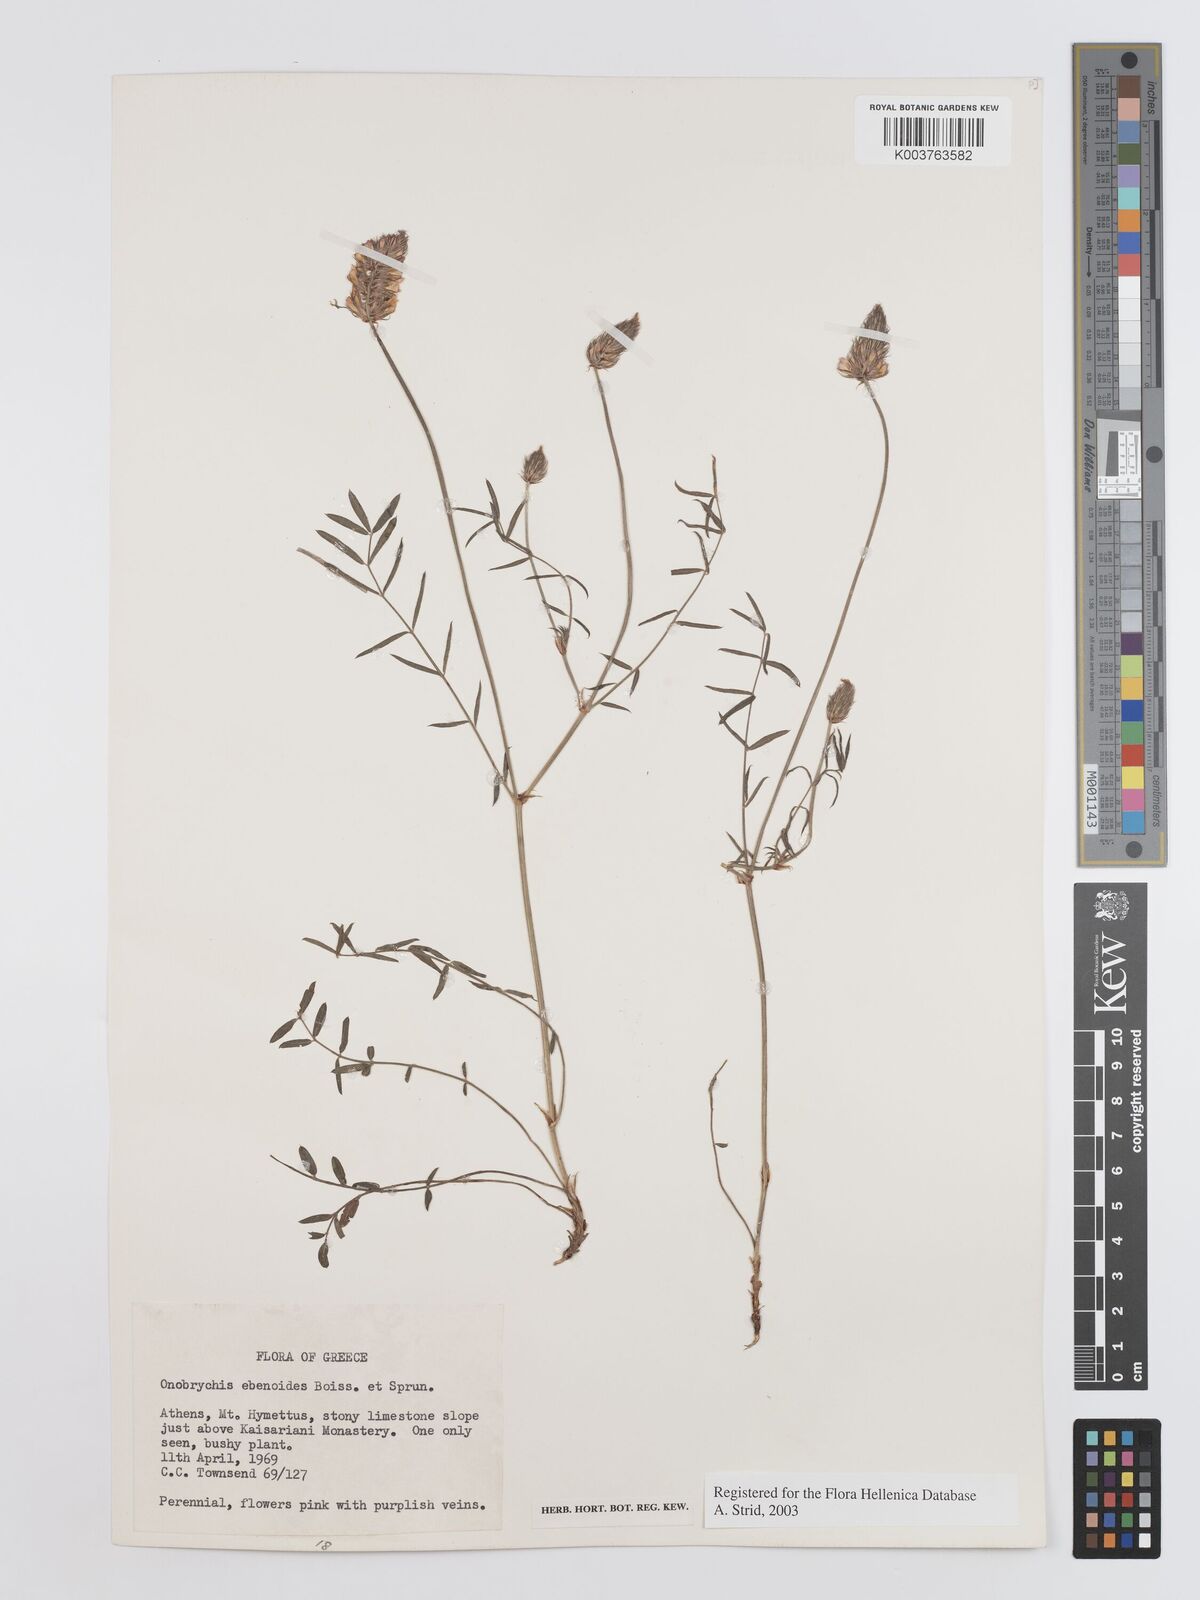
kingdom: Plantae
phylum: Tracheophyta
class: Magnoliopsida
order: Fabales
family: Fabaceae
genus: Onobrychis
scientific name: Onobrychis ebenoides
